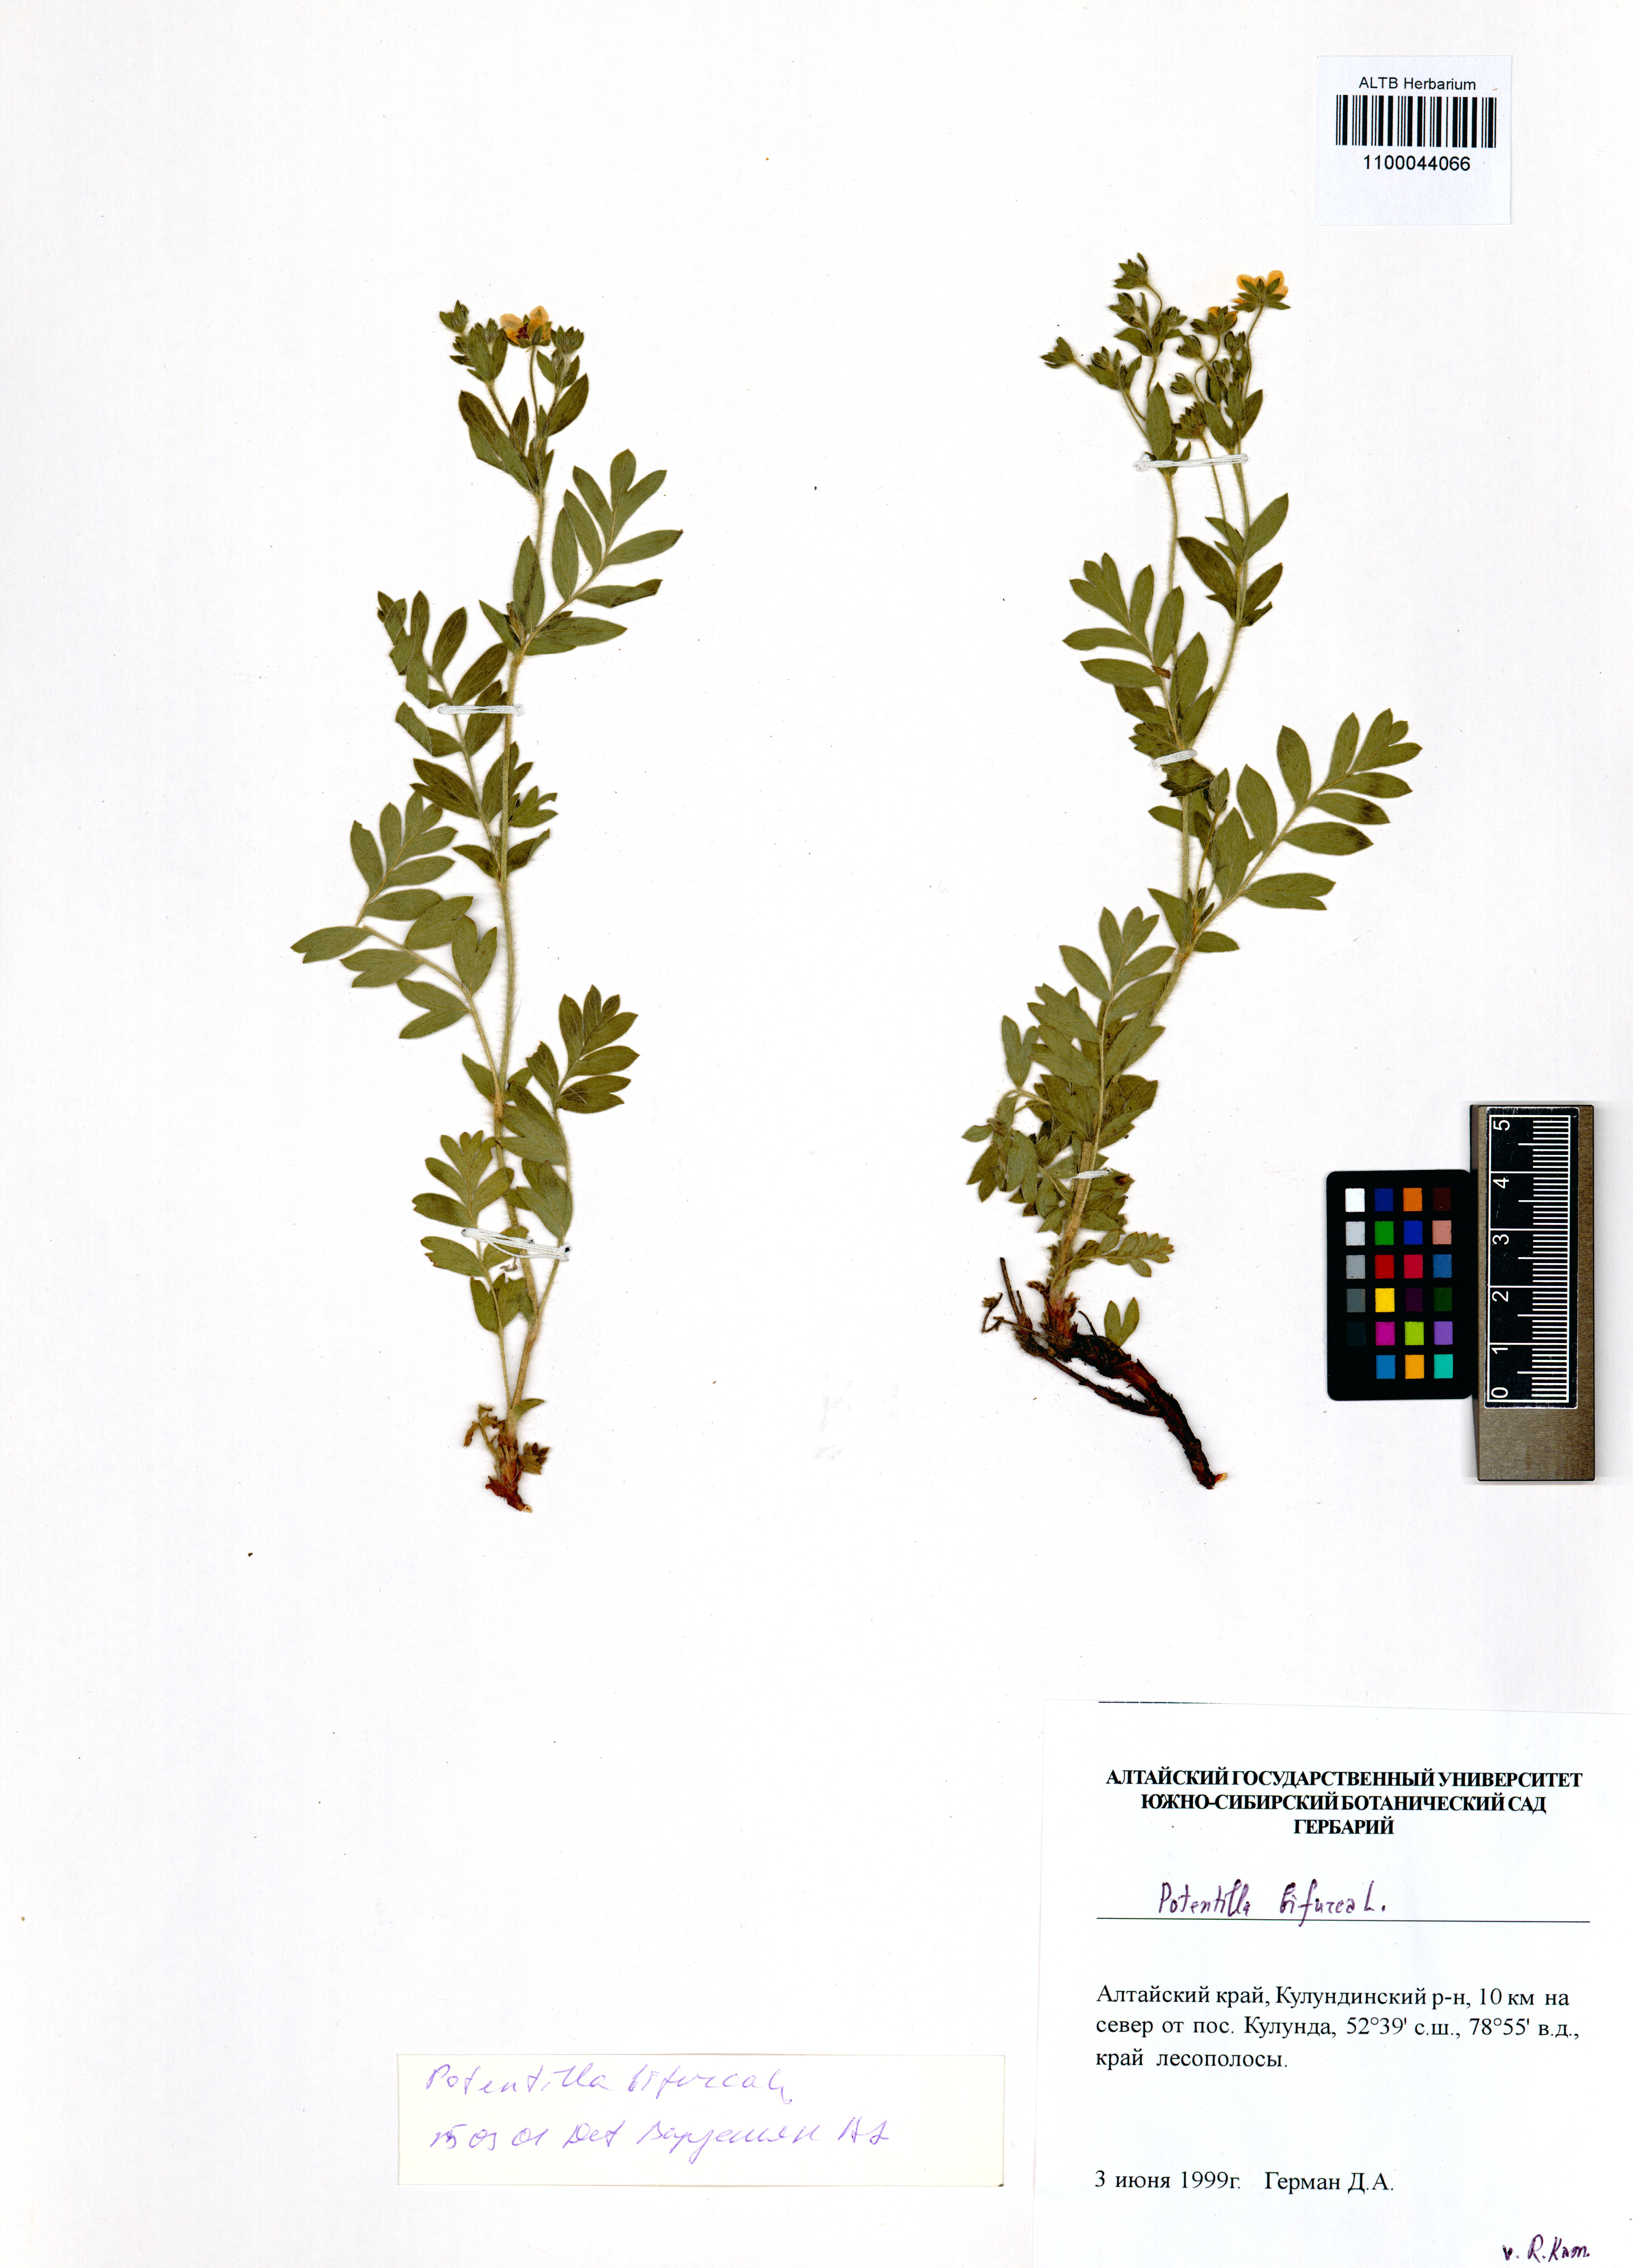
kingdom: Plantae
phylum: Tracheophyta
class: Magnoliopsida
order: Rosales
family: Rosaceae
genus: Sibbaldianthe
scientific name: Sibbaldianthe bifurca
